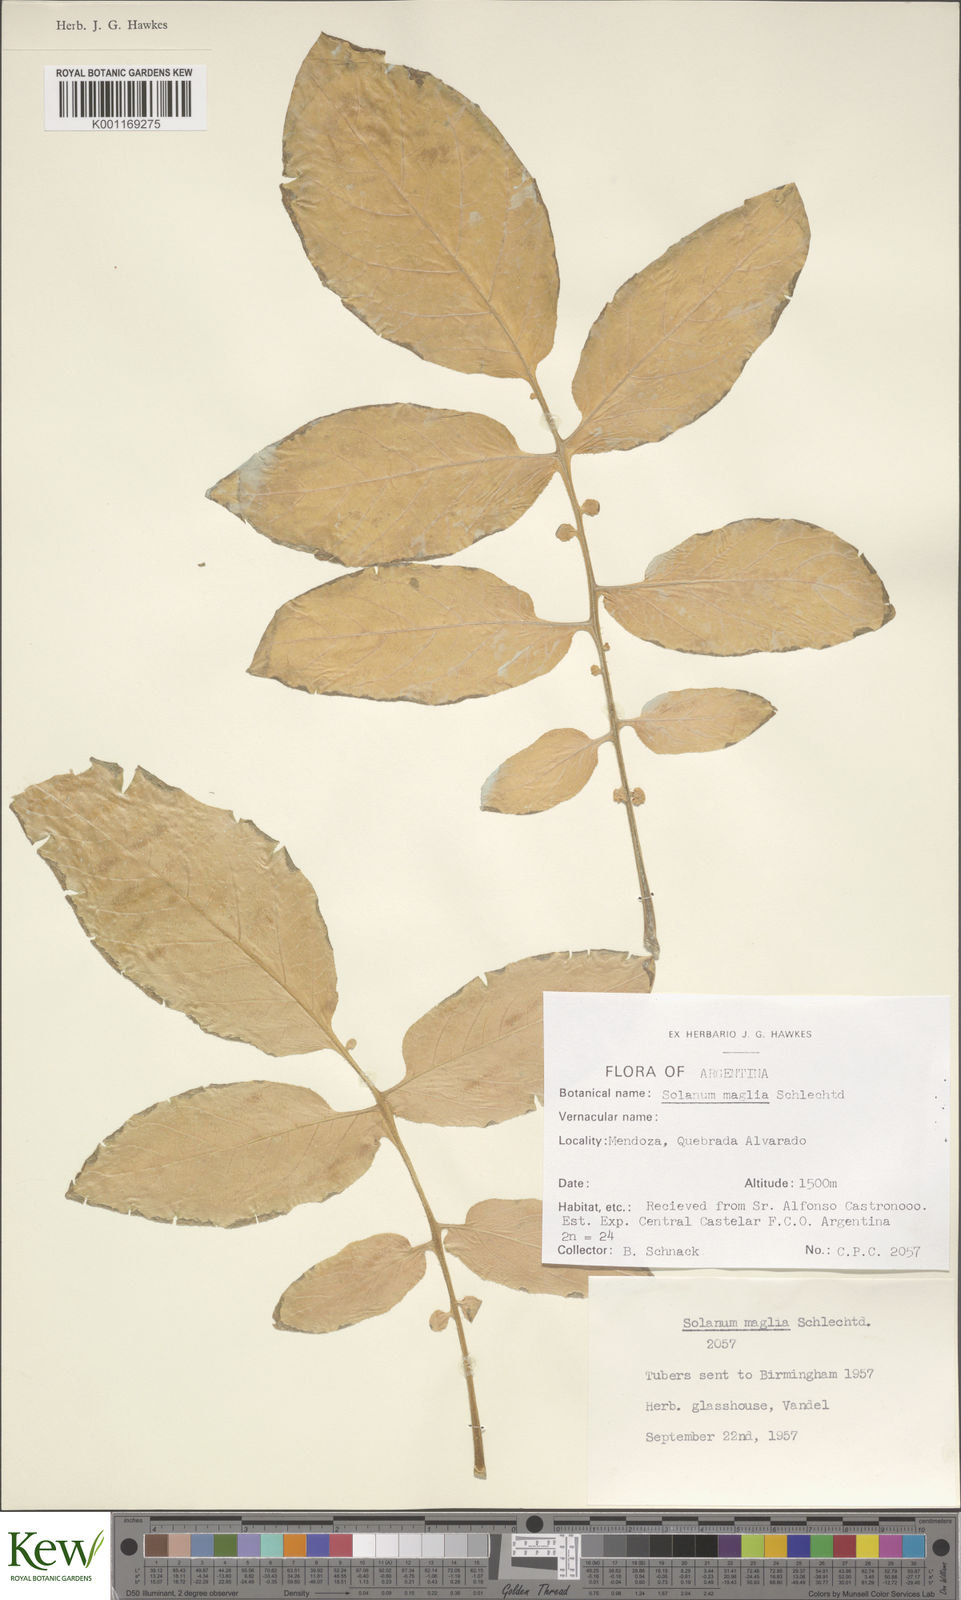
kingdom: Plantae
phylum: Tracheophyta
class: Magnoliopsida
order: Solanales
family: Solanaceae
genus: Solanum
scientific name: Solanum maglia
